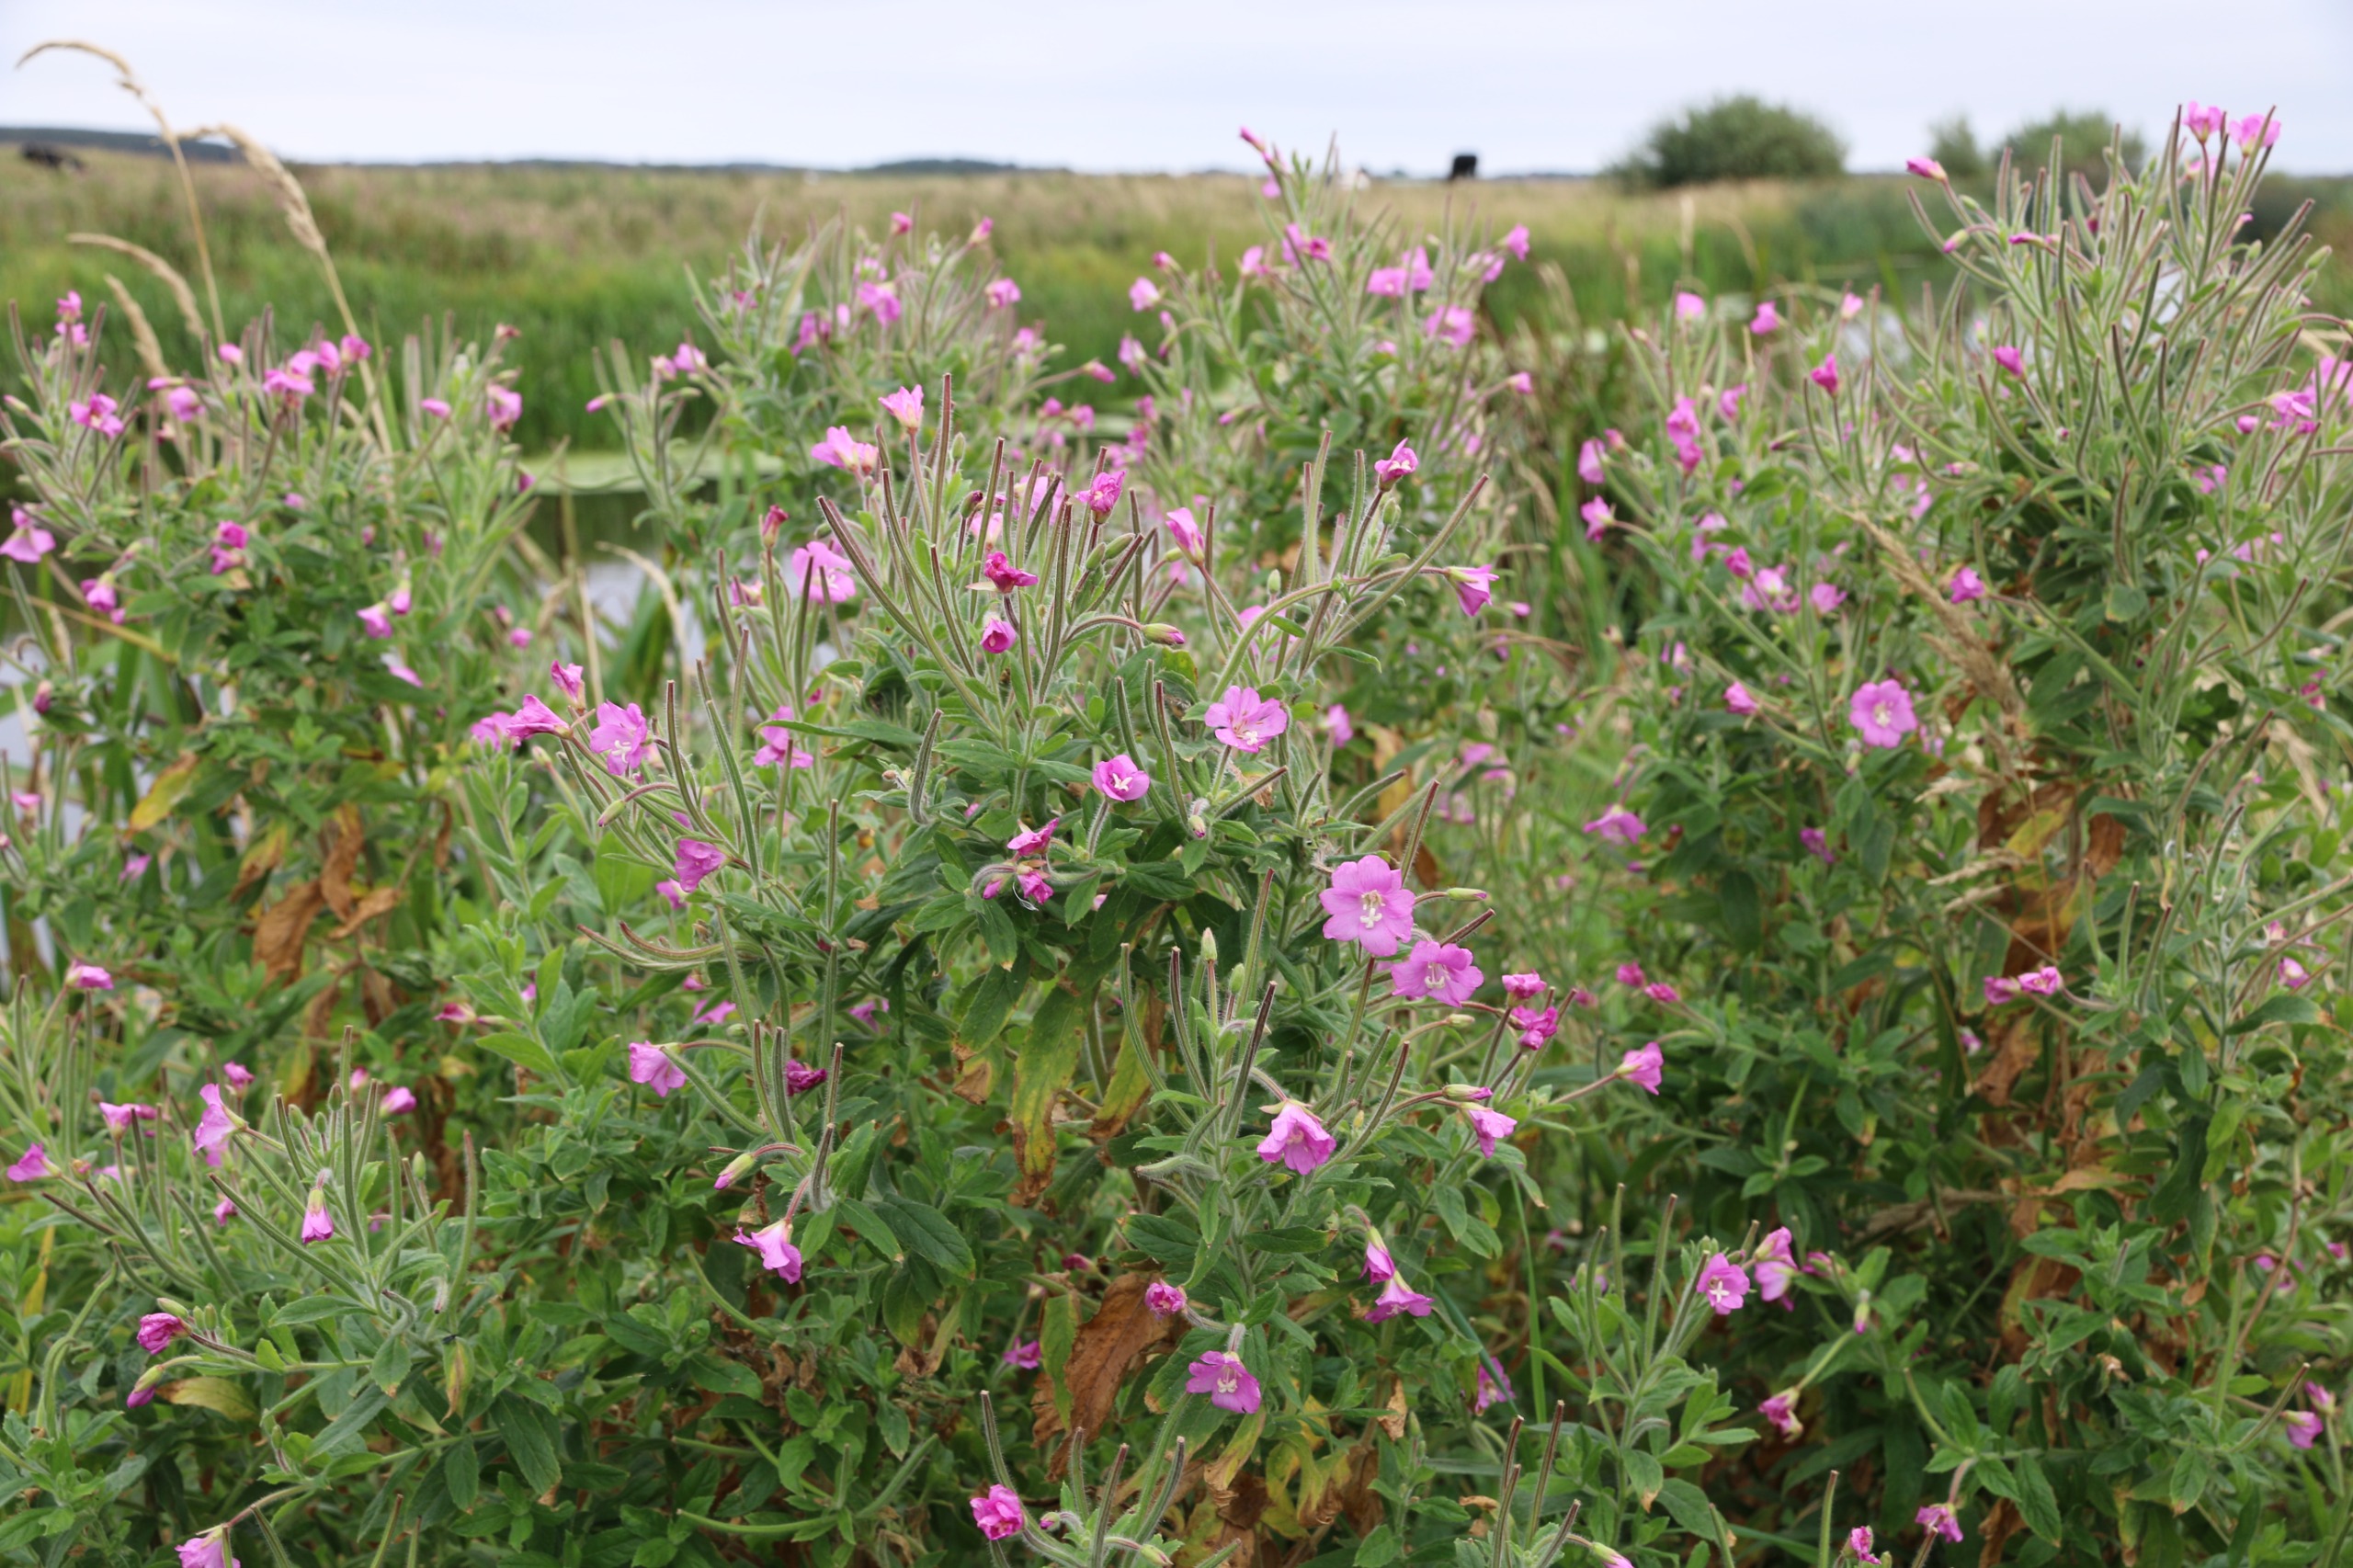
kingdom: Plantae
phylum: Tracheophyta
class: Magnoliopsida
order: Myrtales
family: Onagraceae
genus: Epilobium
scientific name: Epilobium hirsutum
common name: Lådden dueurt
